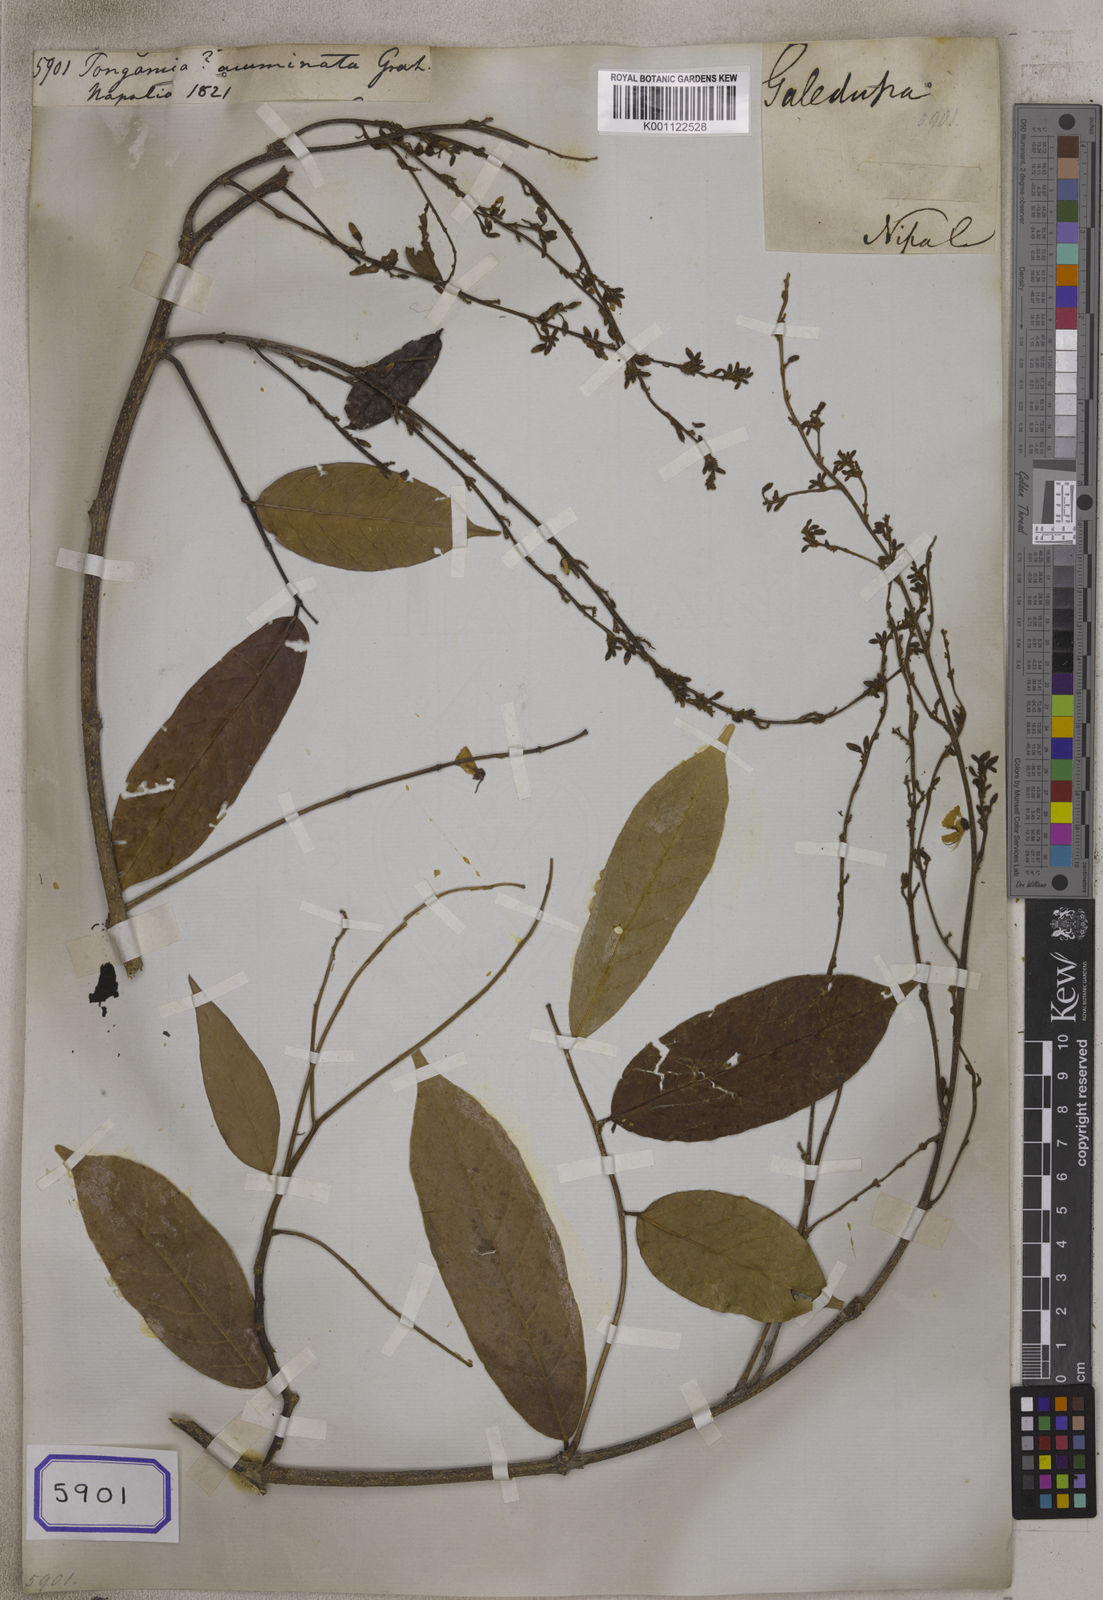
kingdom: Plantae
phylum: Tracheophyta
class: Magnoliopsida
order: Fabales
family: Fabaceae
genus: Derris
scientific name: Derris acuminata
